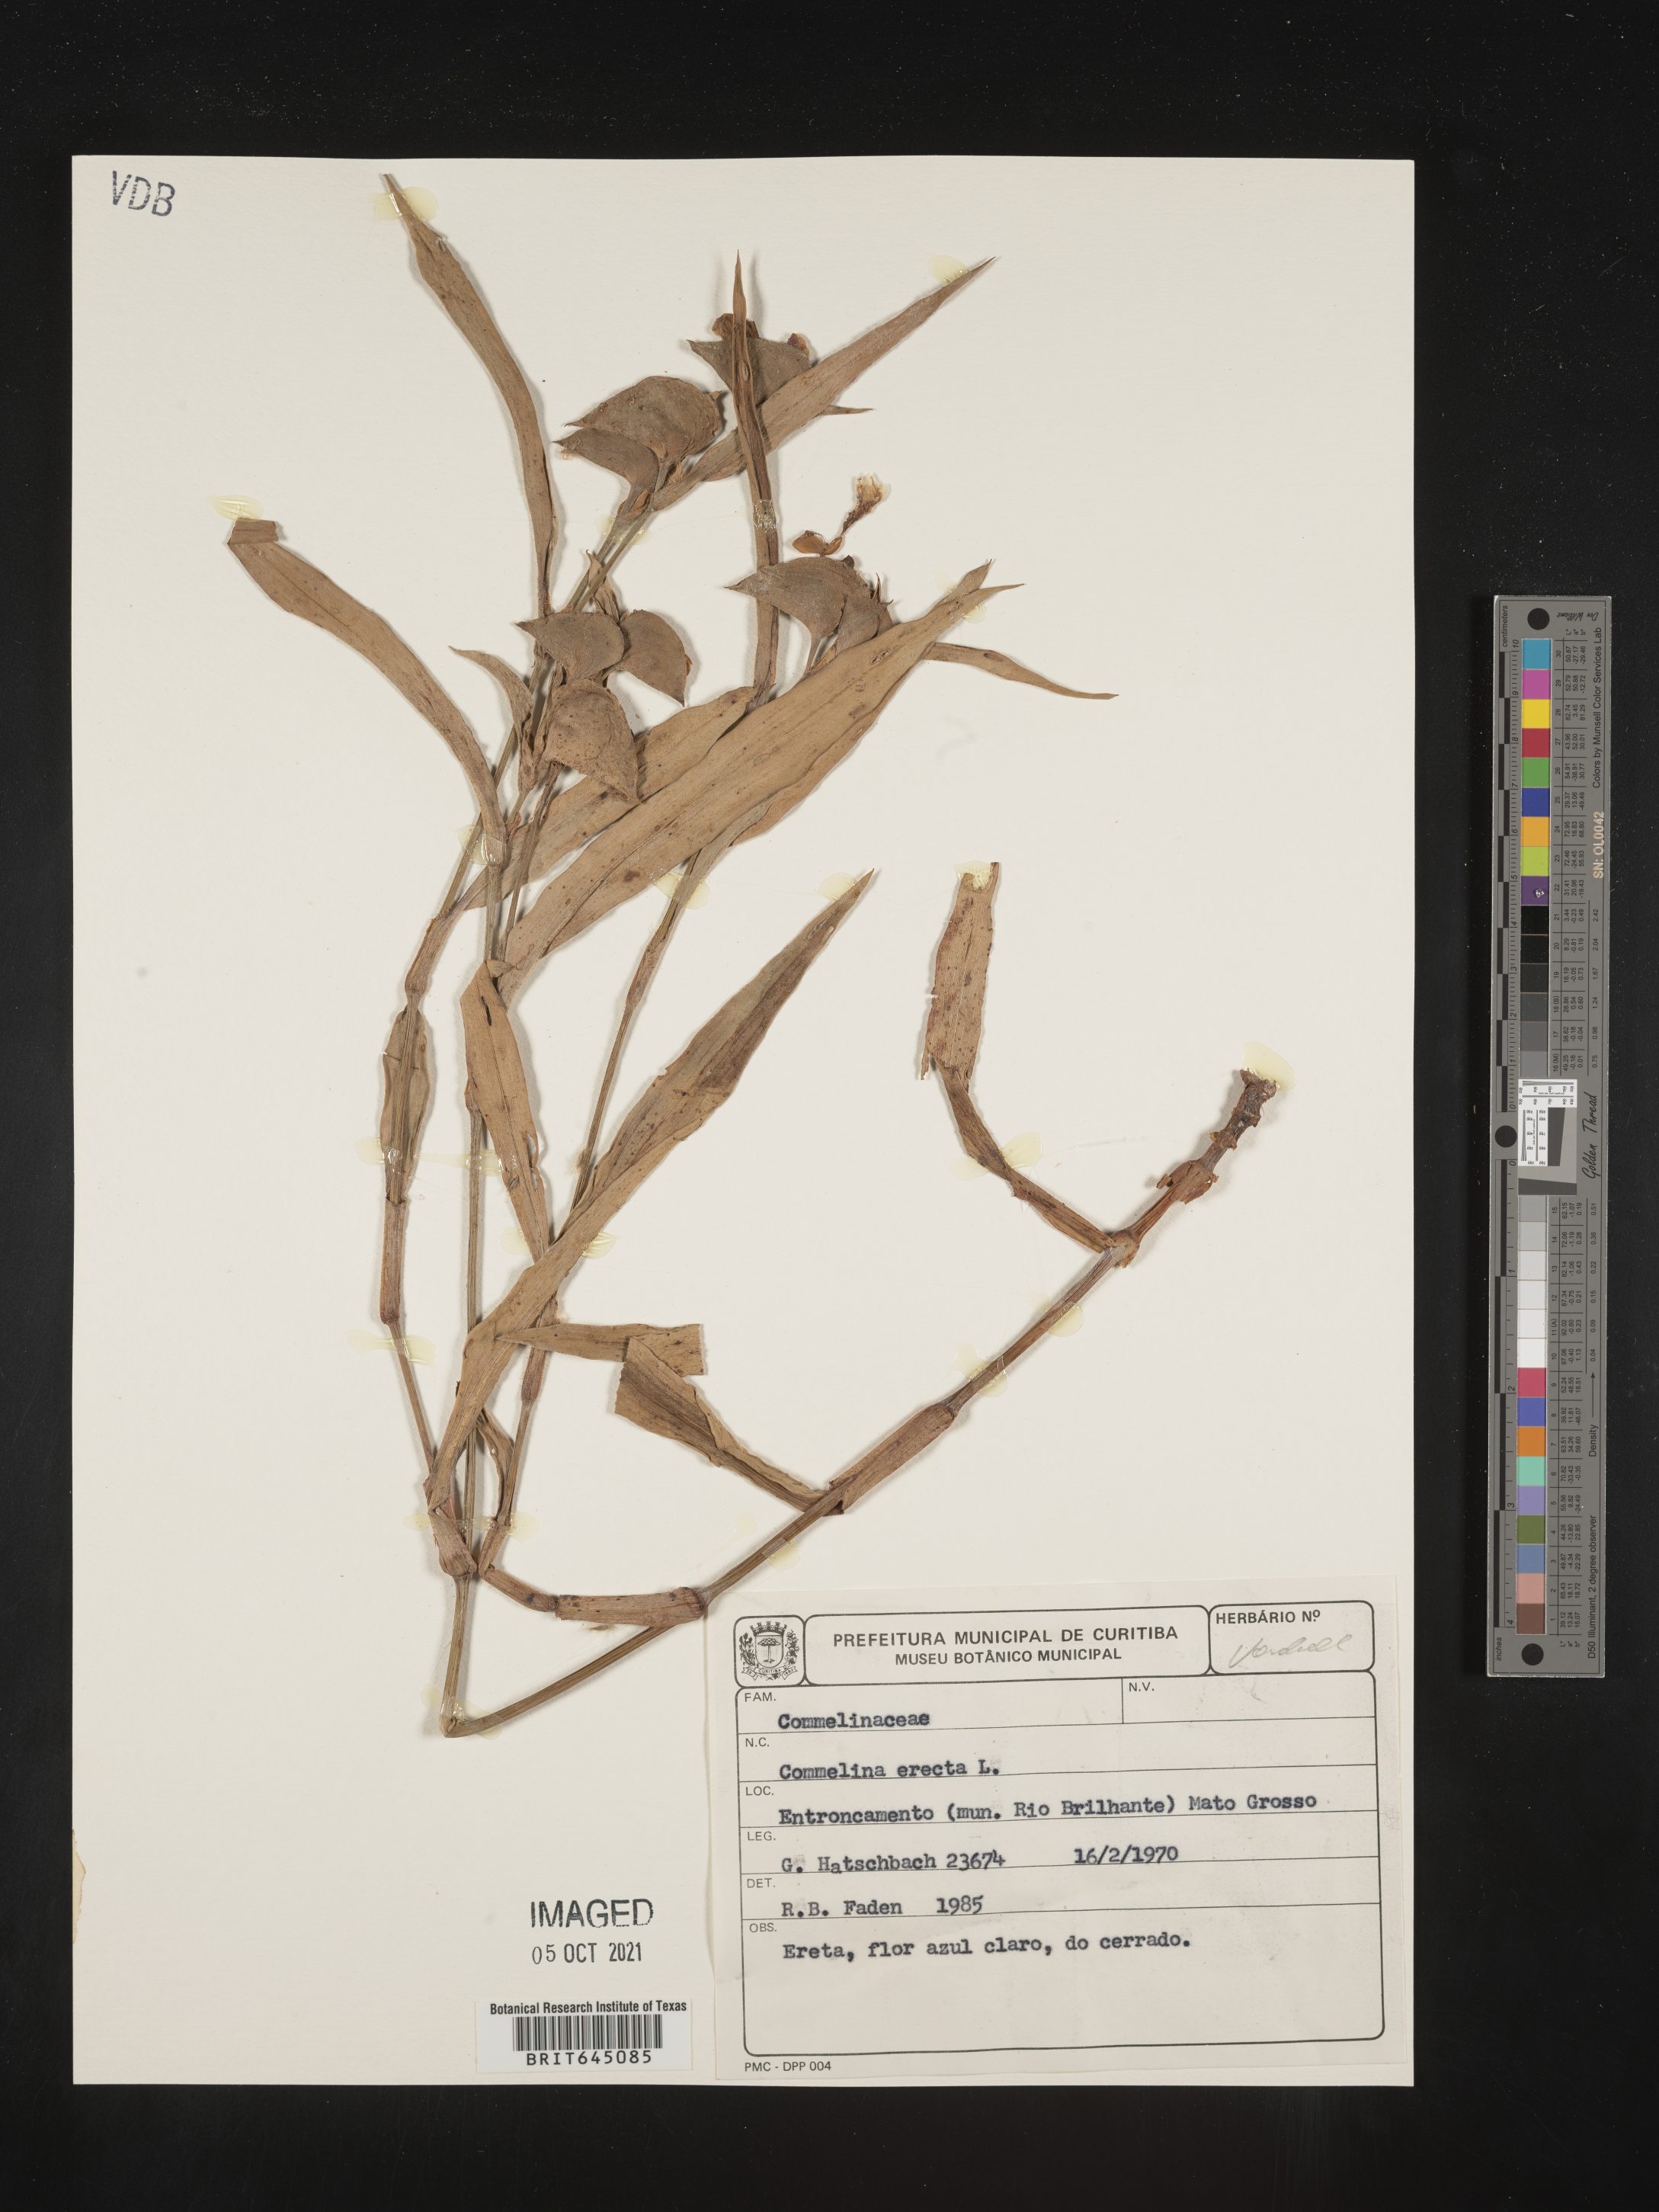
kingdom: Plantae
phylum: Tracheophyta
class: Liliopsida
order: Commelinales
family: Commelinaceae
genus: Commelina
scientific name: Commelina erecta
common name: Blousel blommetjie
